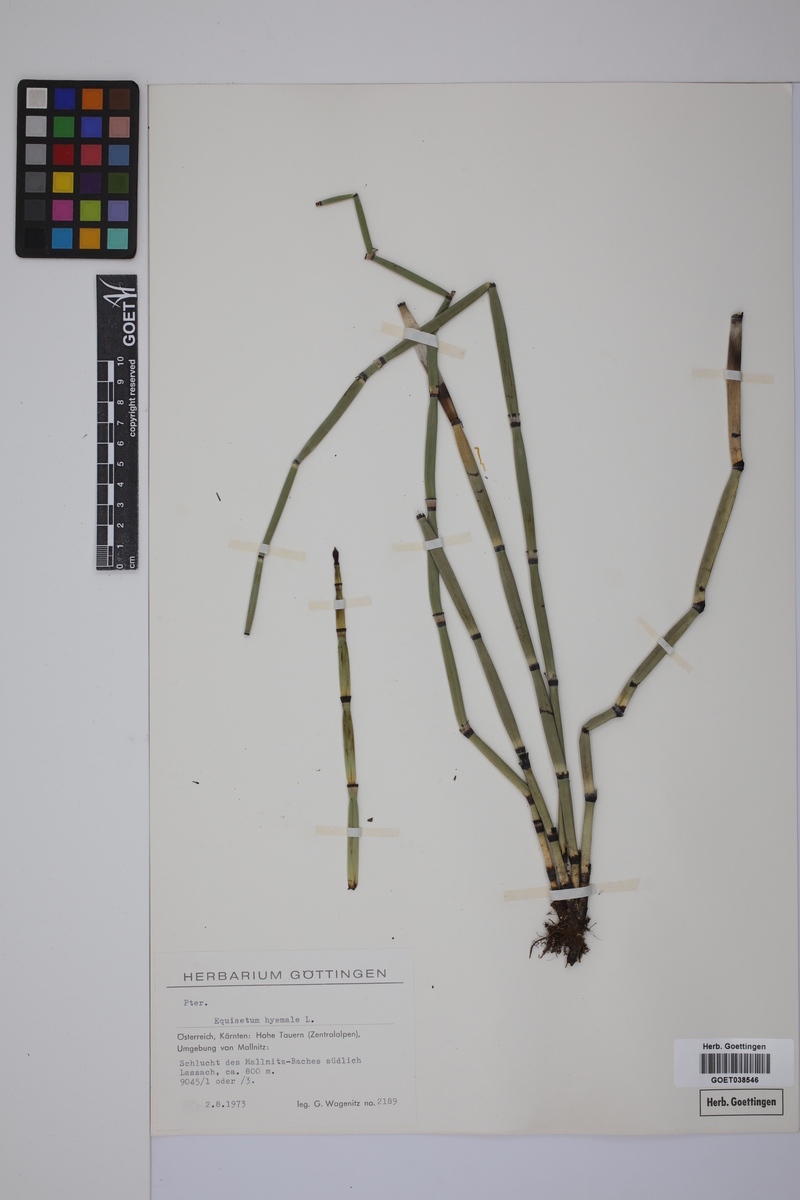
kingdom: Plantae
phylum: Tracheophyta
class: Polypodiopsida
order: Equisetales
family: Equisetaceae
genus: Equisetum
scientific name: Equisetum hyemale
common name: Rough horsetail
